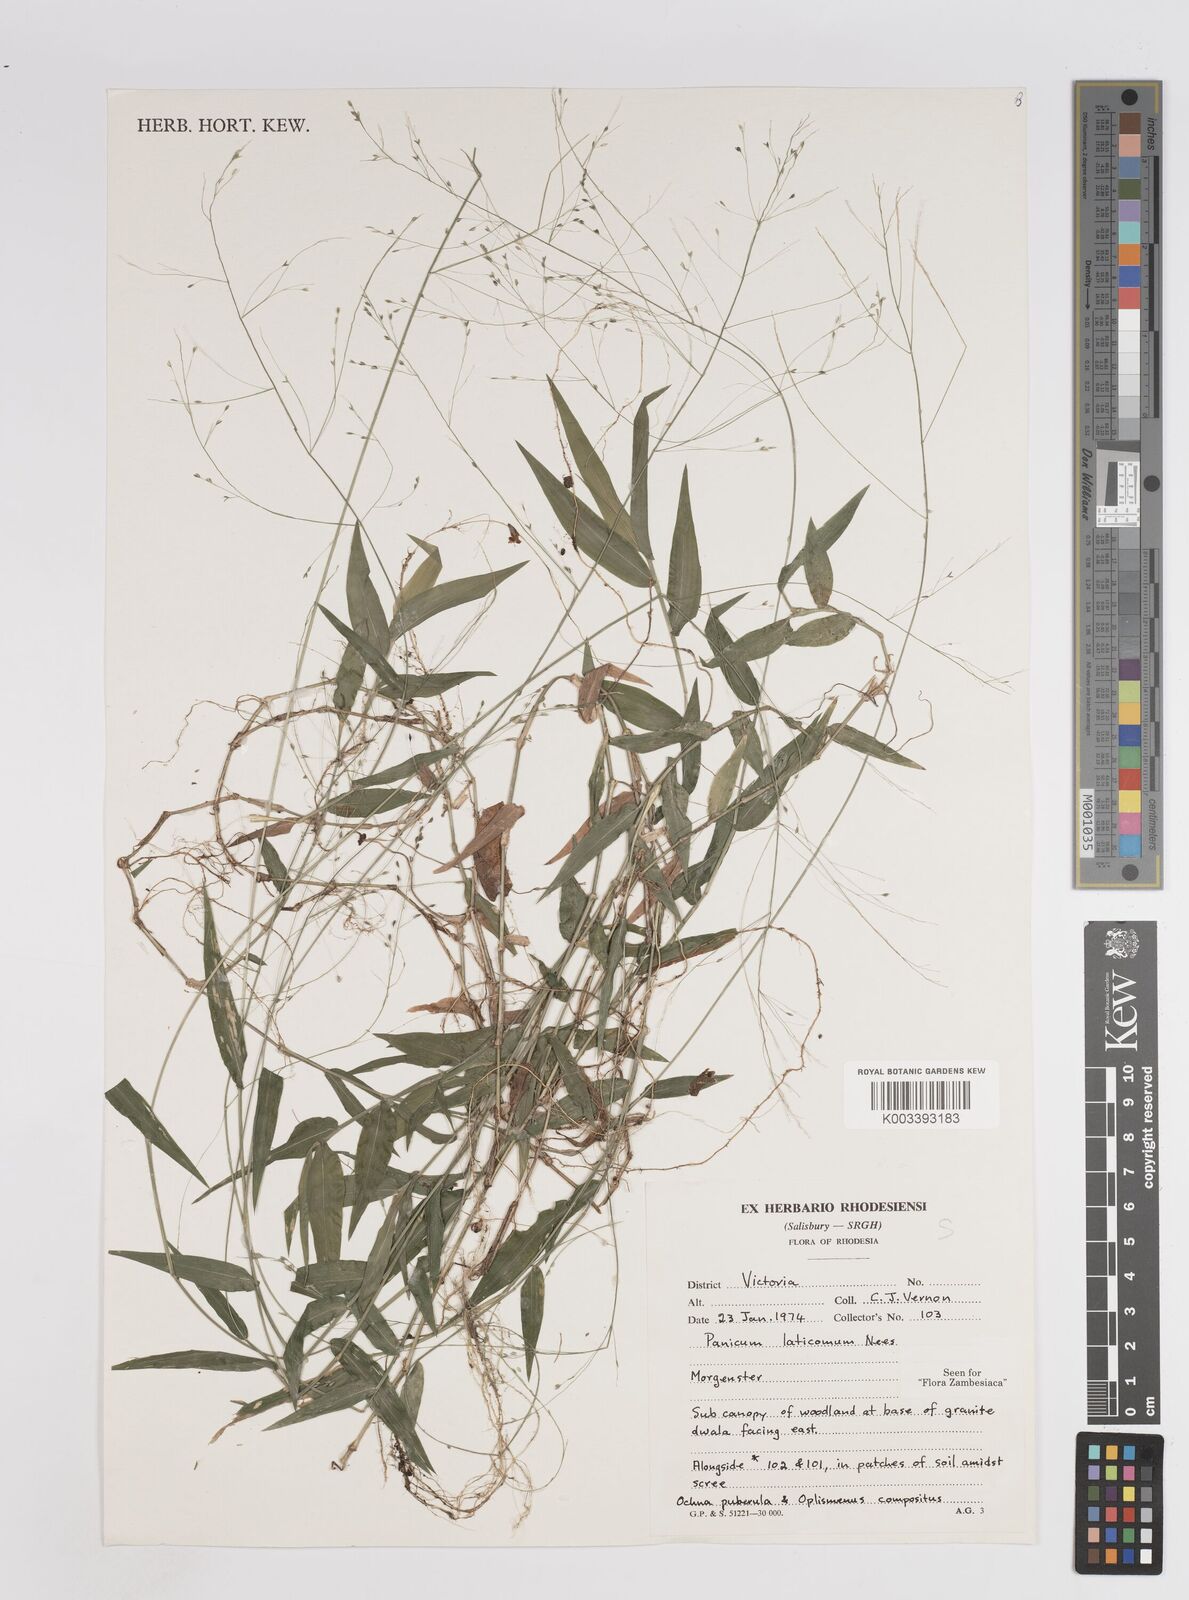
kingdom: Plantae
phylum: Tracheophyta
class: Liliopsida
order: Poales
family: Poaceae
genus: Panicum
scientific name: Panicum laticomum
